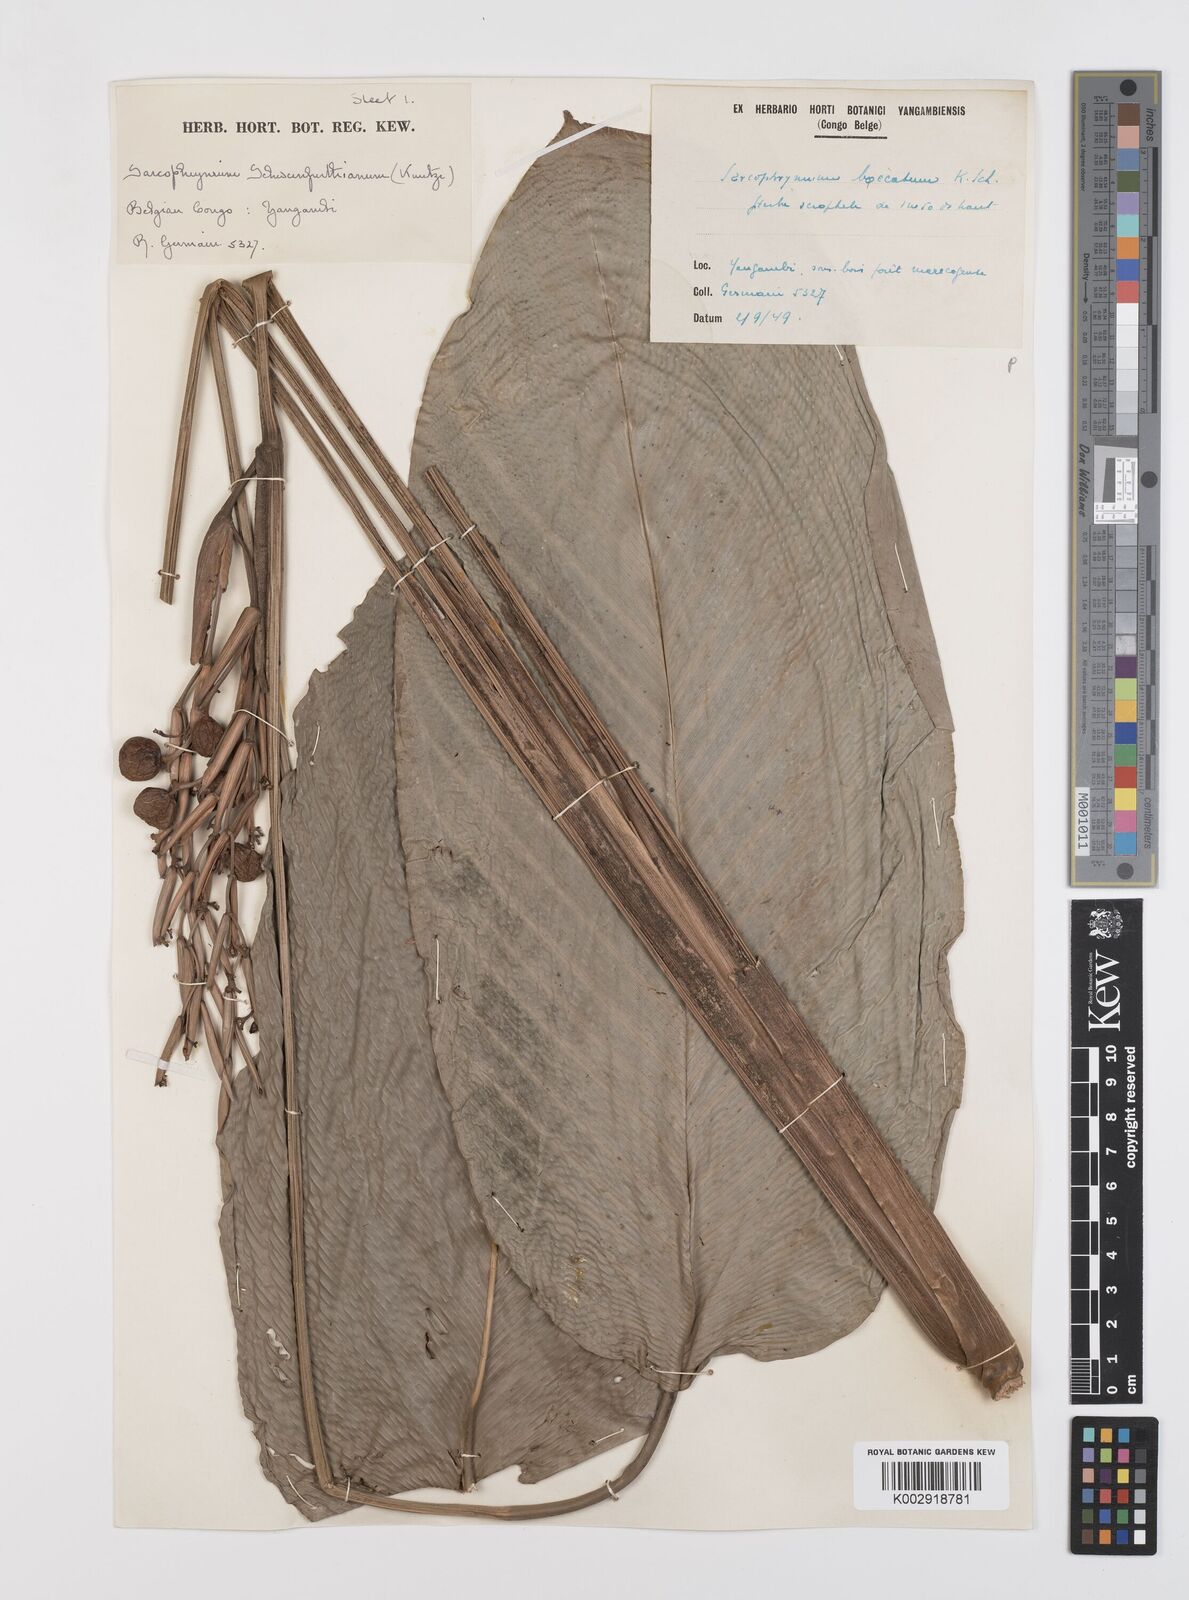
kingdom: Plantae
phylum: Tracheophyta
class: Liliopsida
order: Zingiberales
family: Marantaceae
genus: Sarcophrynium
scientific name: Sarcophrynium schweinfurthianum
